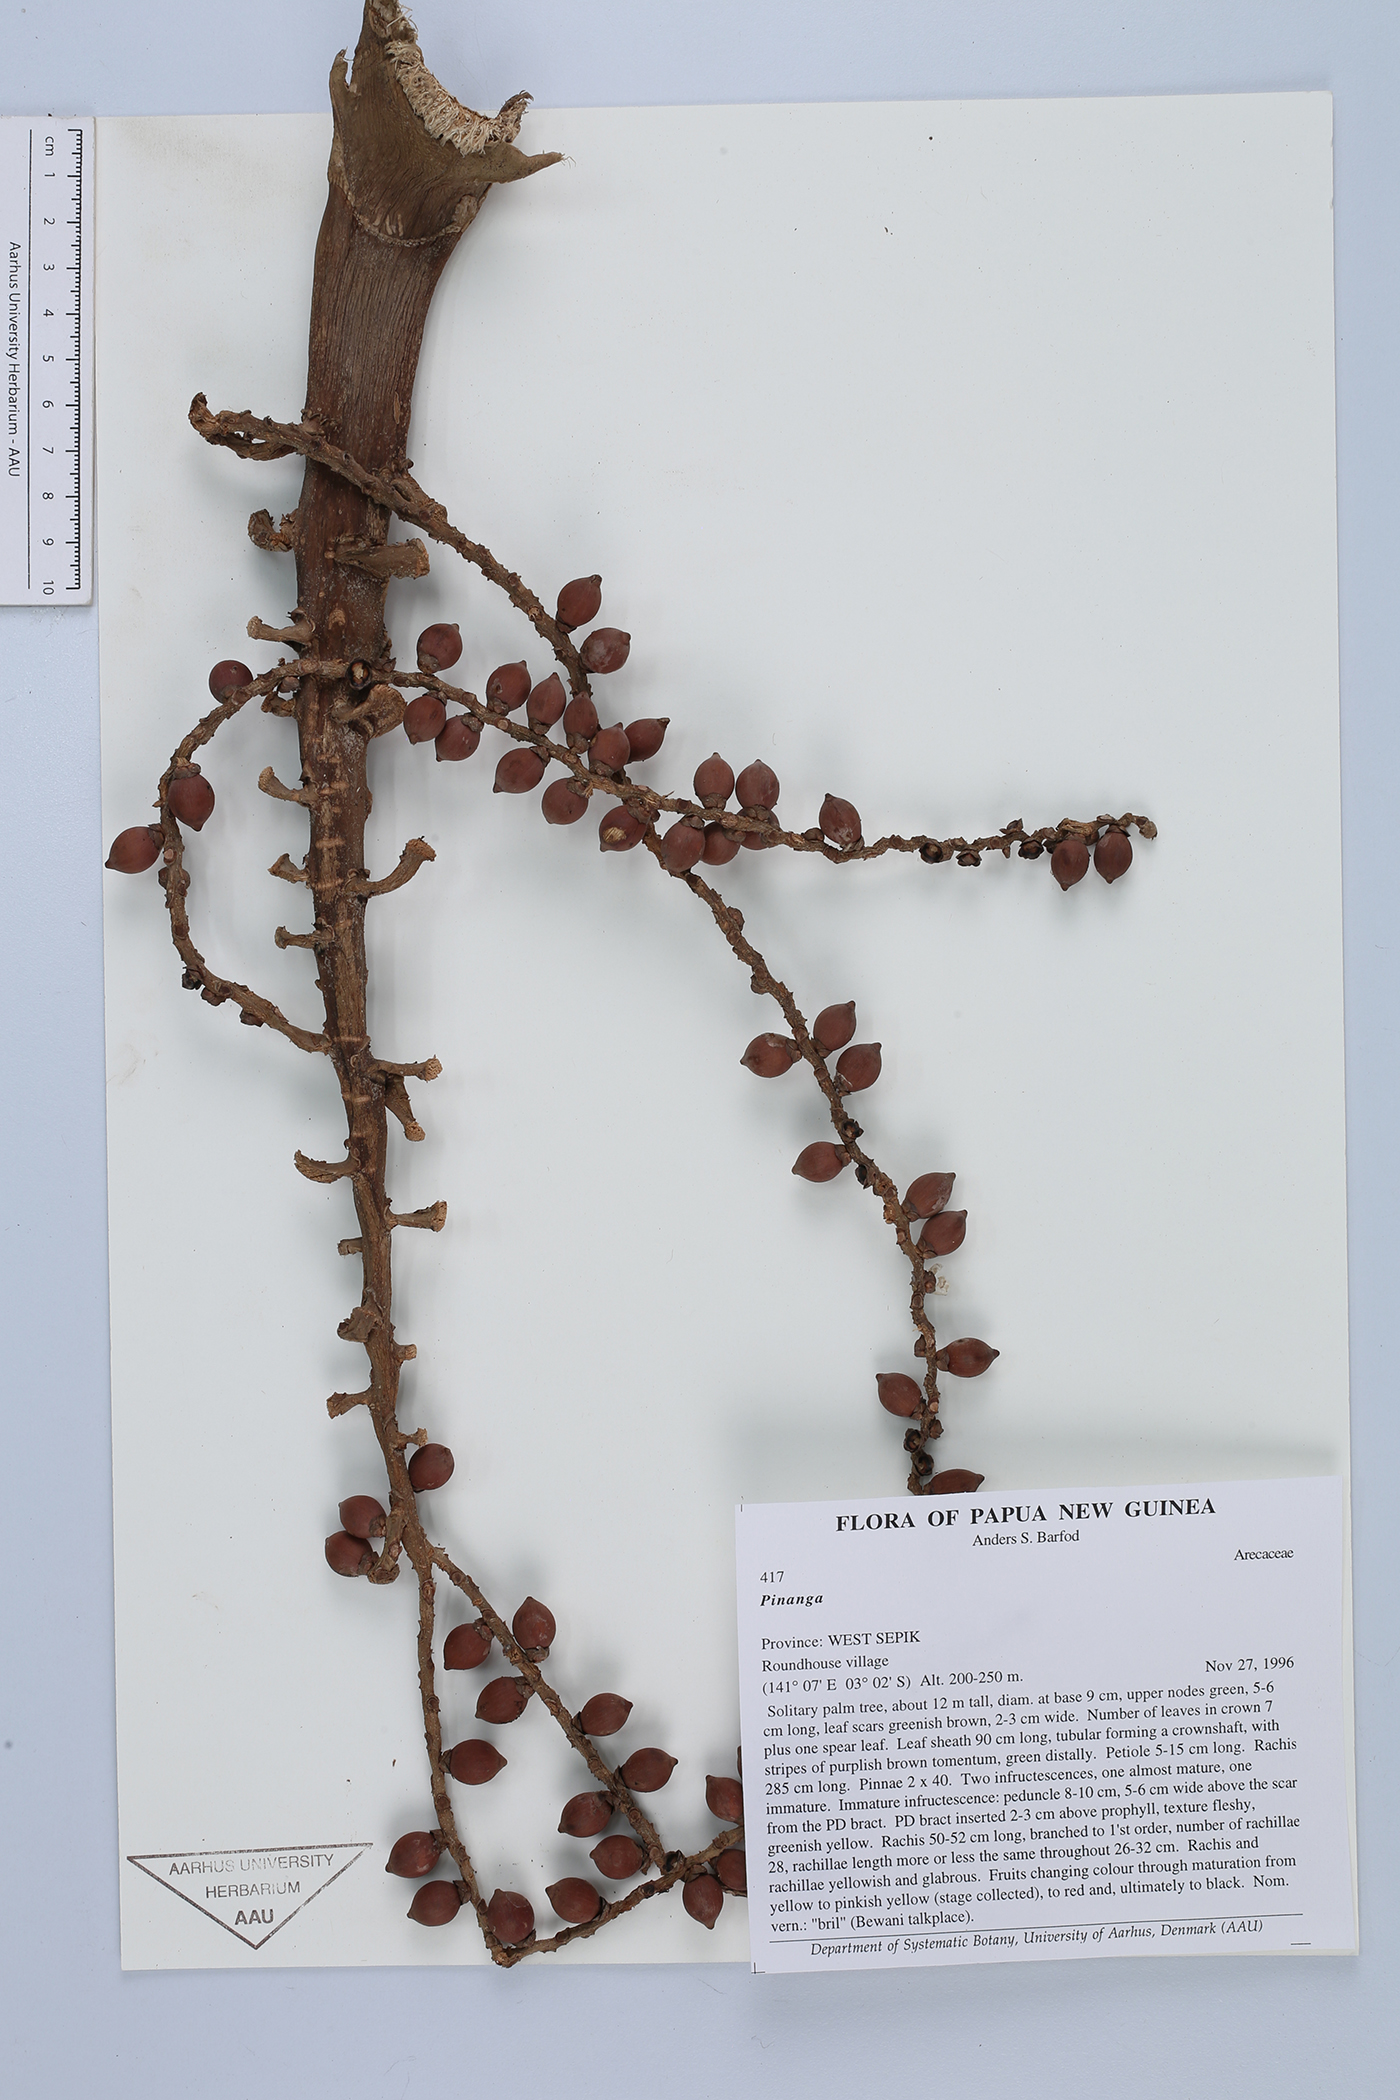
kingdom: Plantae
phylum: Tracheophyta
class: Liliopsida
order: Arecales
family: Arecaceae
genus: Pinanga
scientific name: Pinanga
